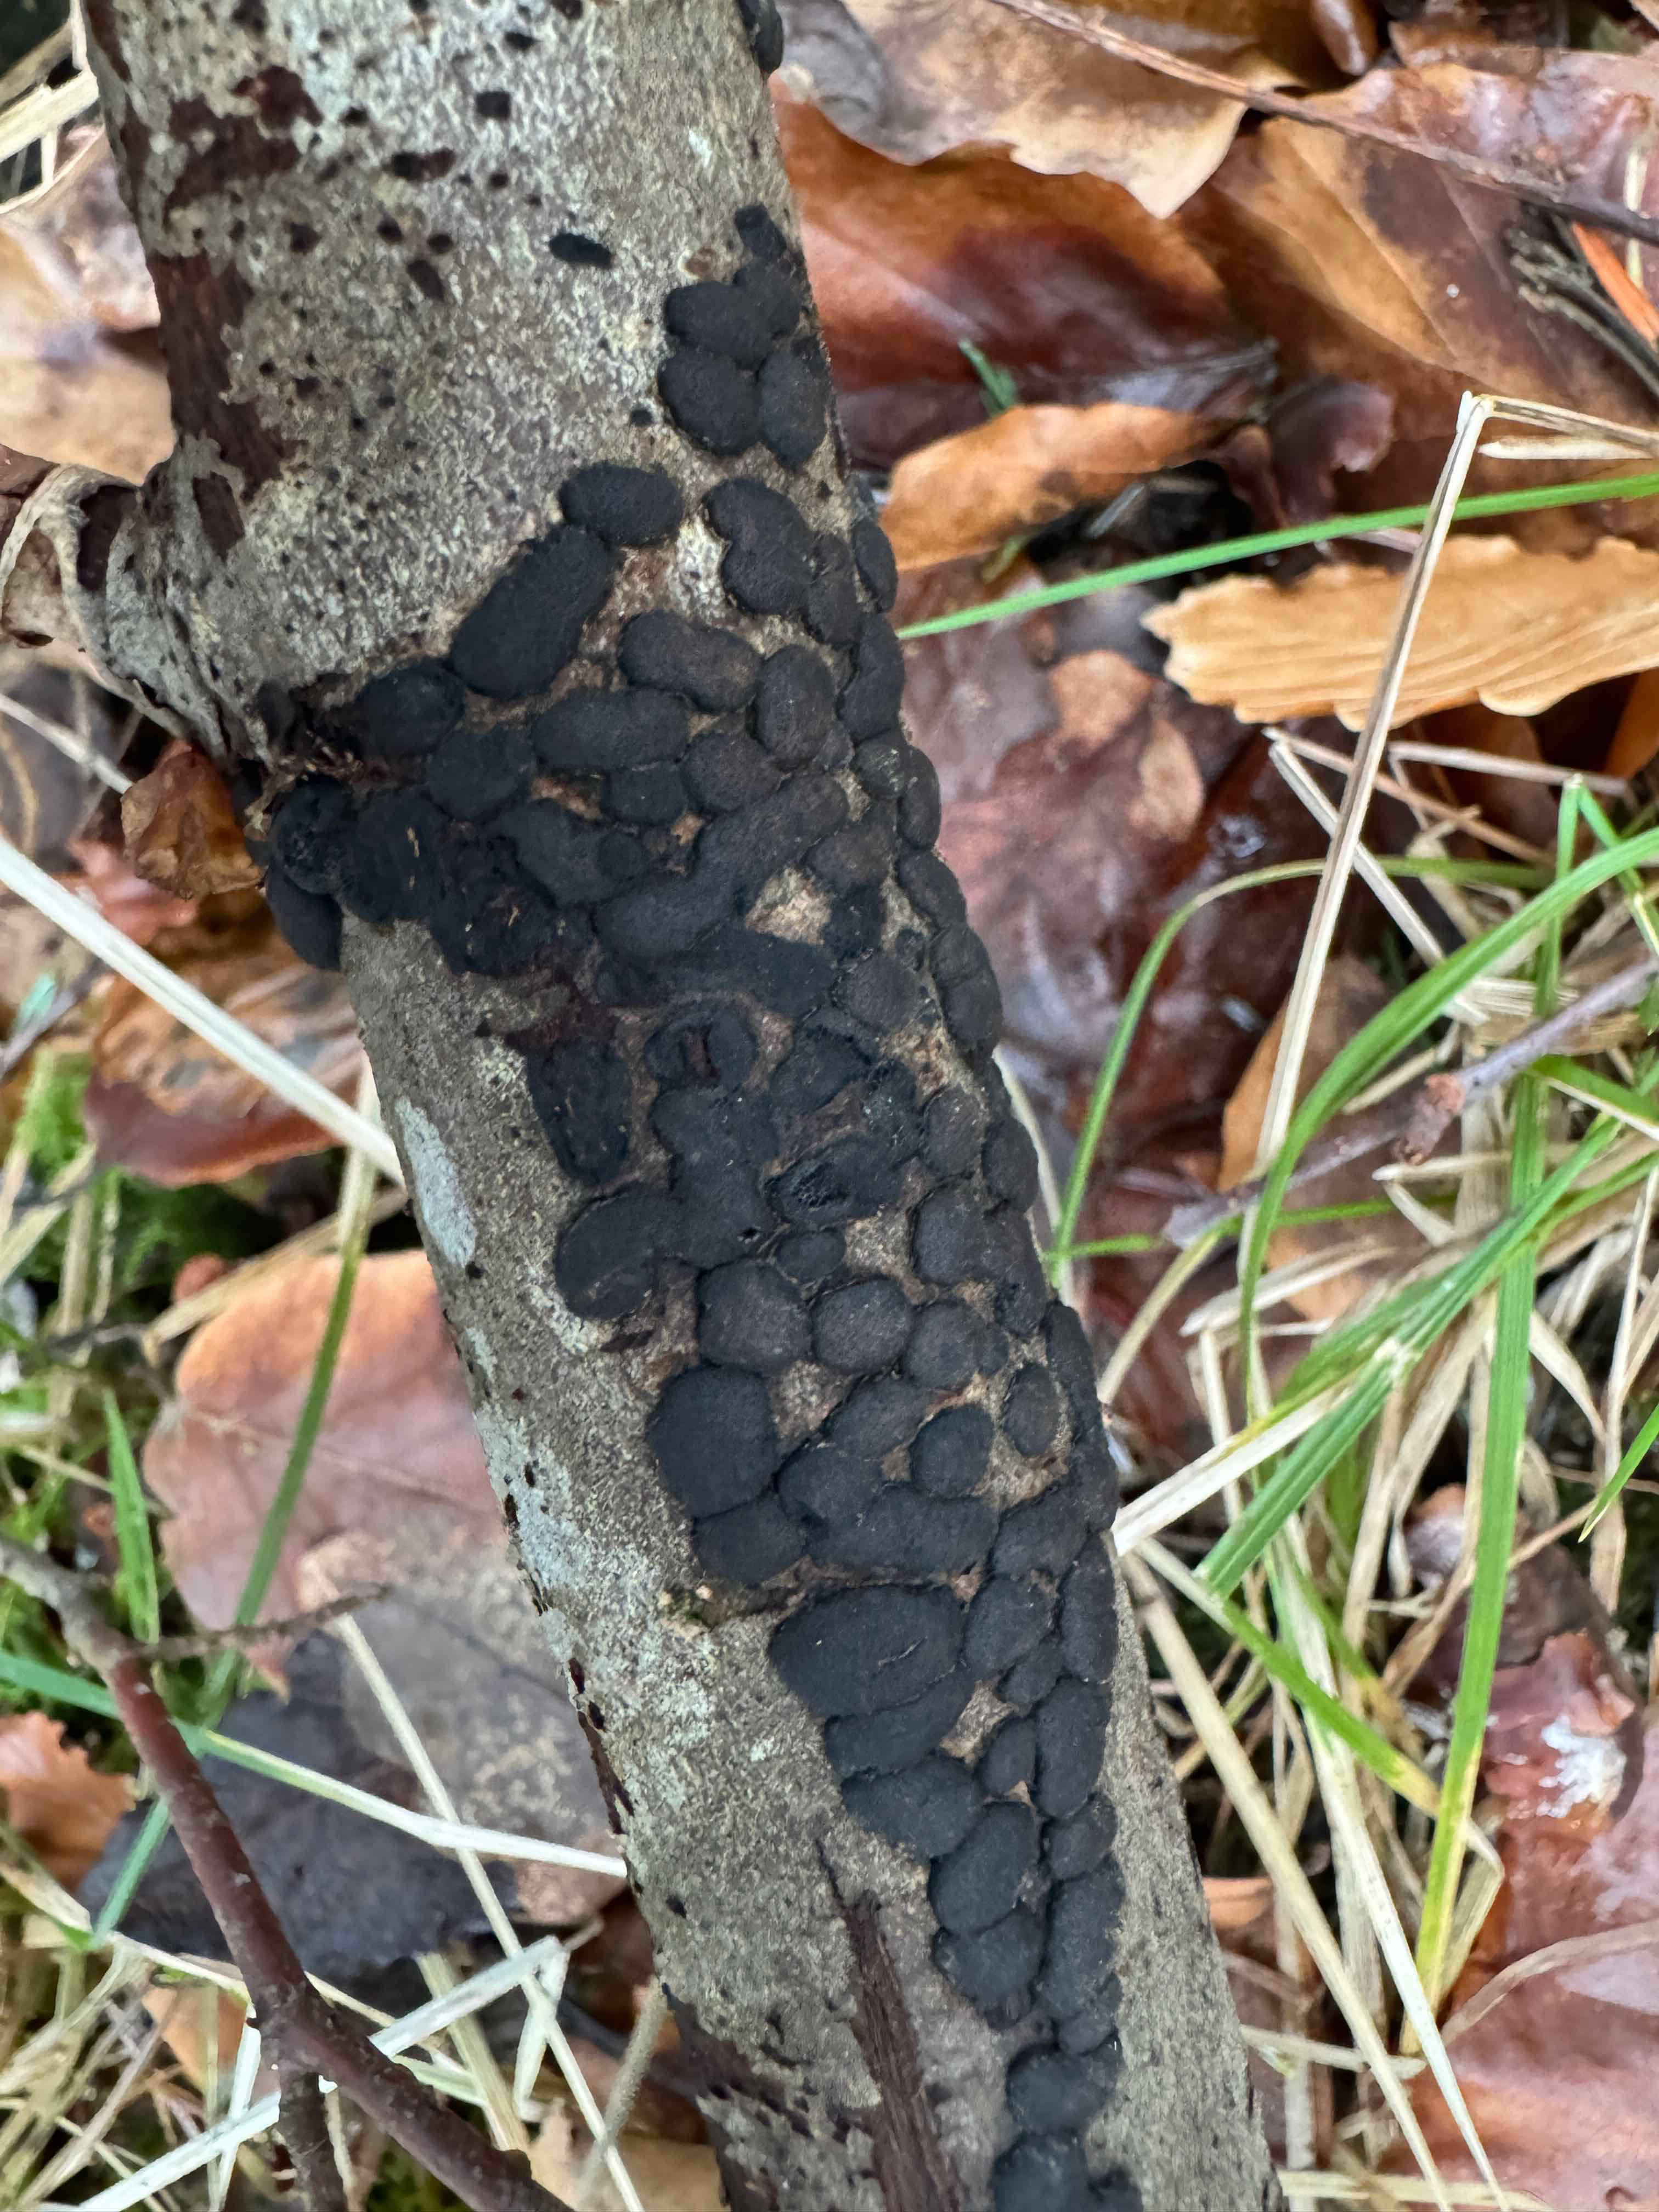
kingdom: Fungi
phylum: Ascomycota
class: Sordariomycetes
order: Xylariales
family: Diatrypaceae
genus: Diatrype
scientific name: Diatrype bullata
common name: pile-kulskorpe
